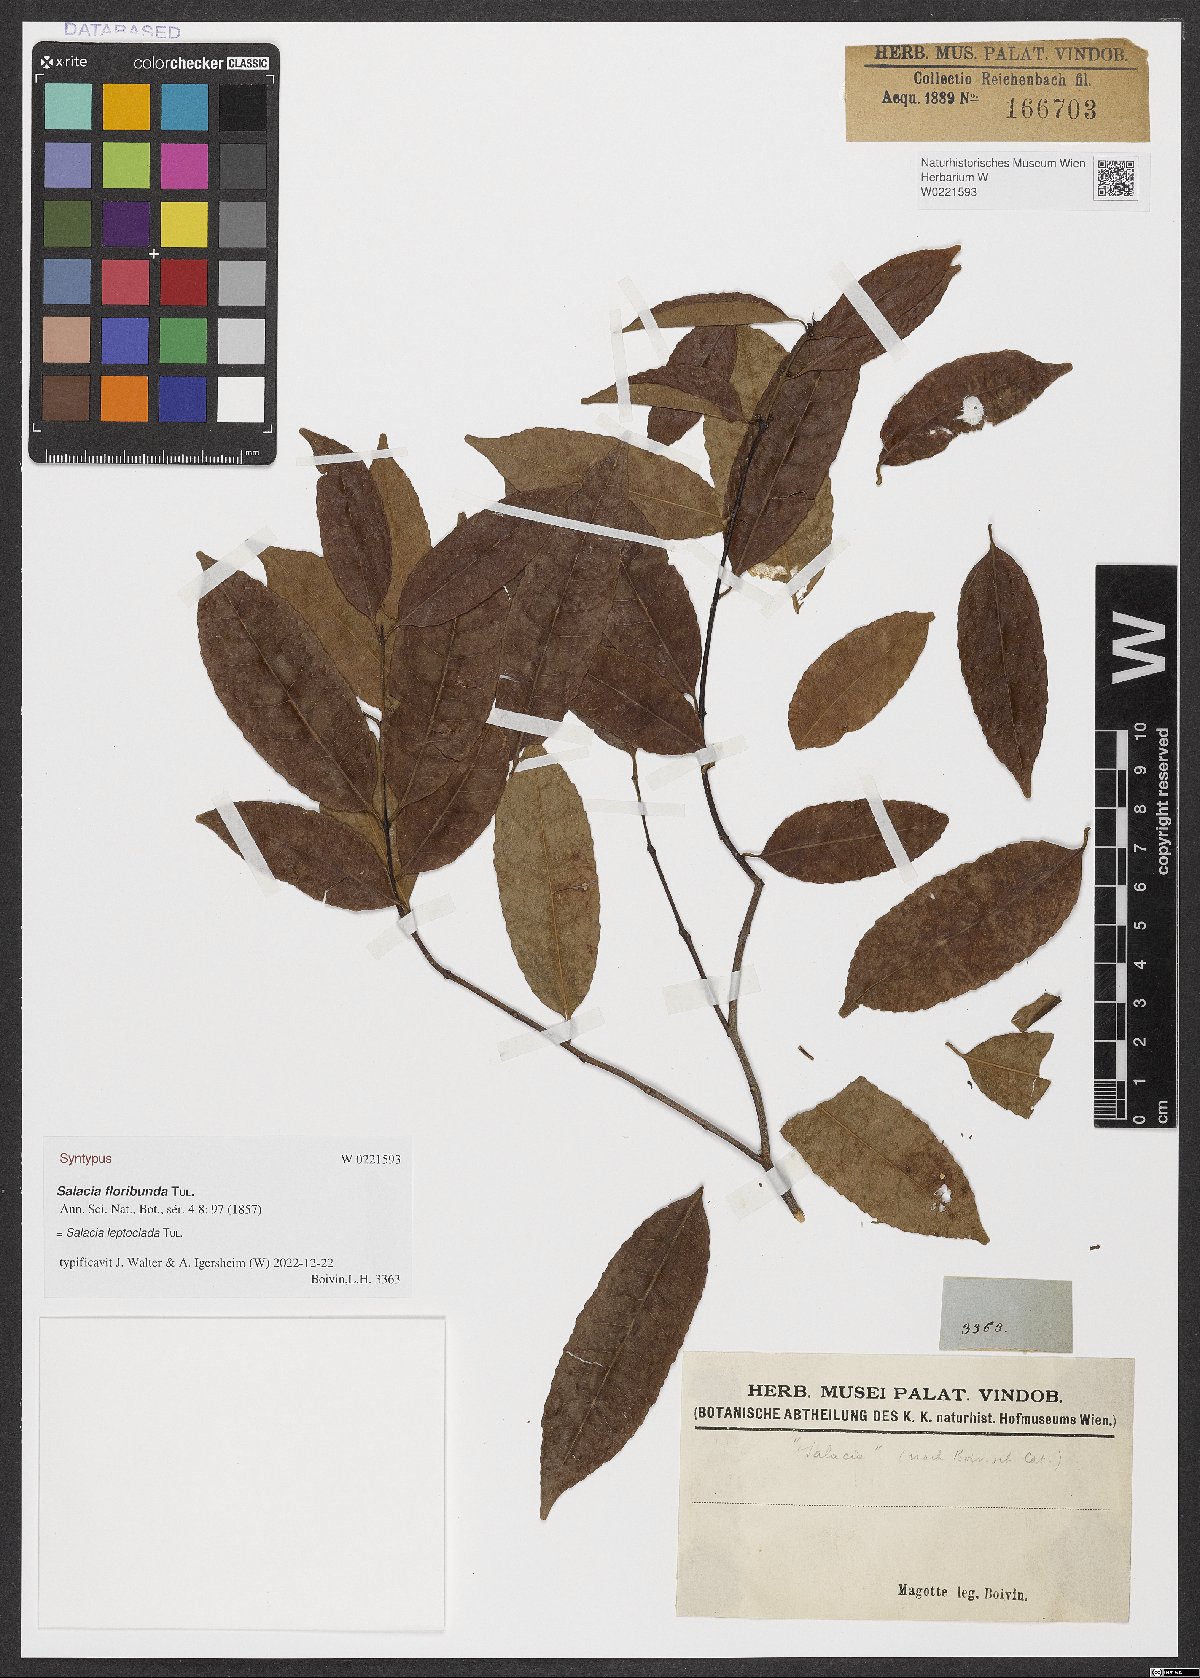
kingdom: Plantae
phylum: Tracheophyta
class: Magnoliopsida
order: Celastrales
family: Celastraceae
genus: Salacia
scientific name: Salacia elegans
